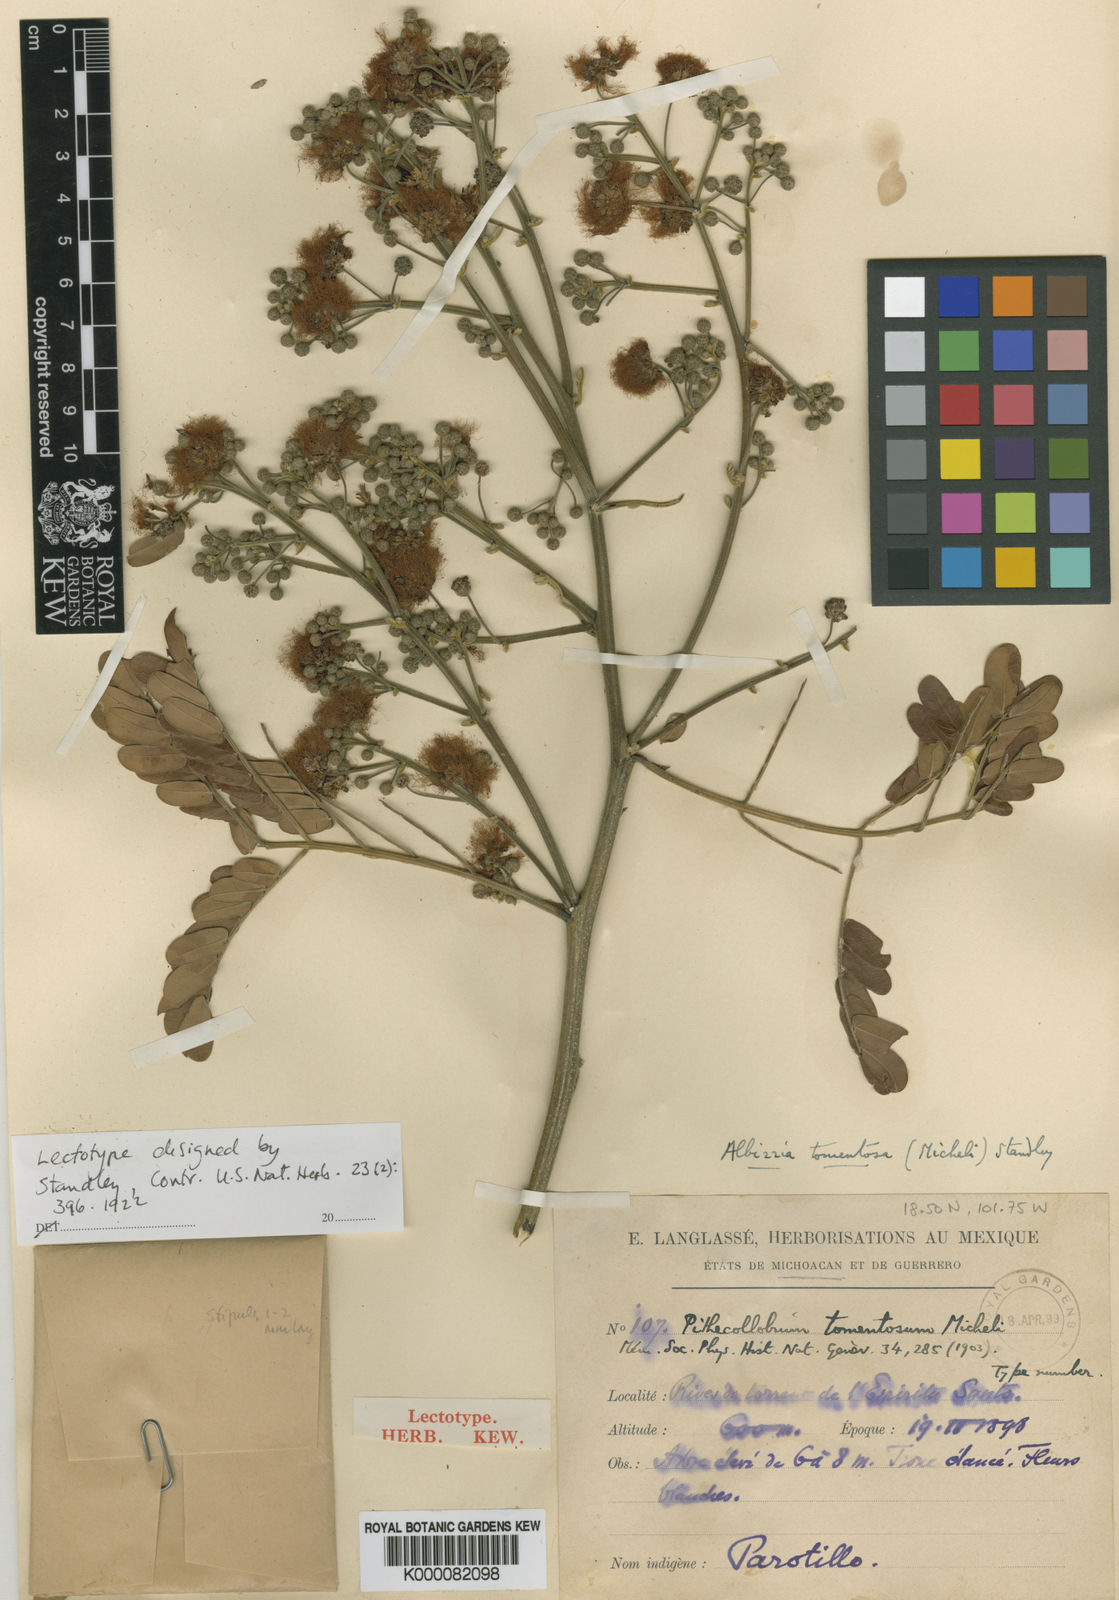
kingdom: Plantae
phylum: Tracheophyta
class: Magnoliopsida
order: Fabales
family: Fabaceae
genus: Albizia
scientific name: Albizia tomentosa
